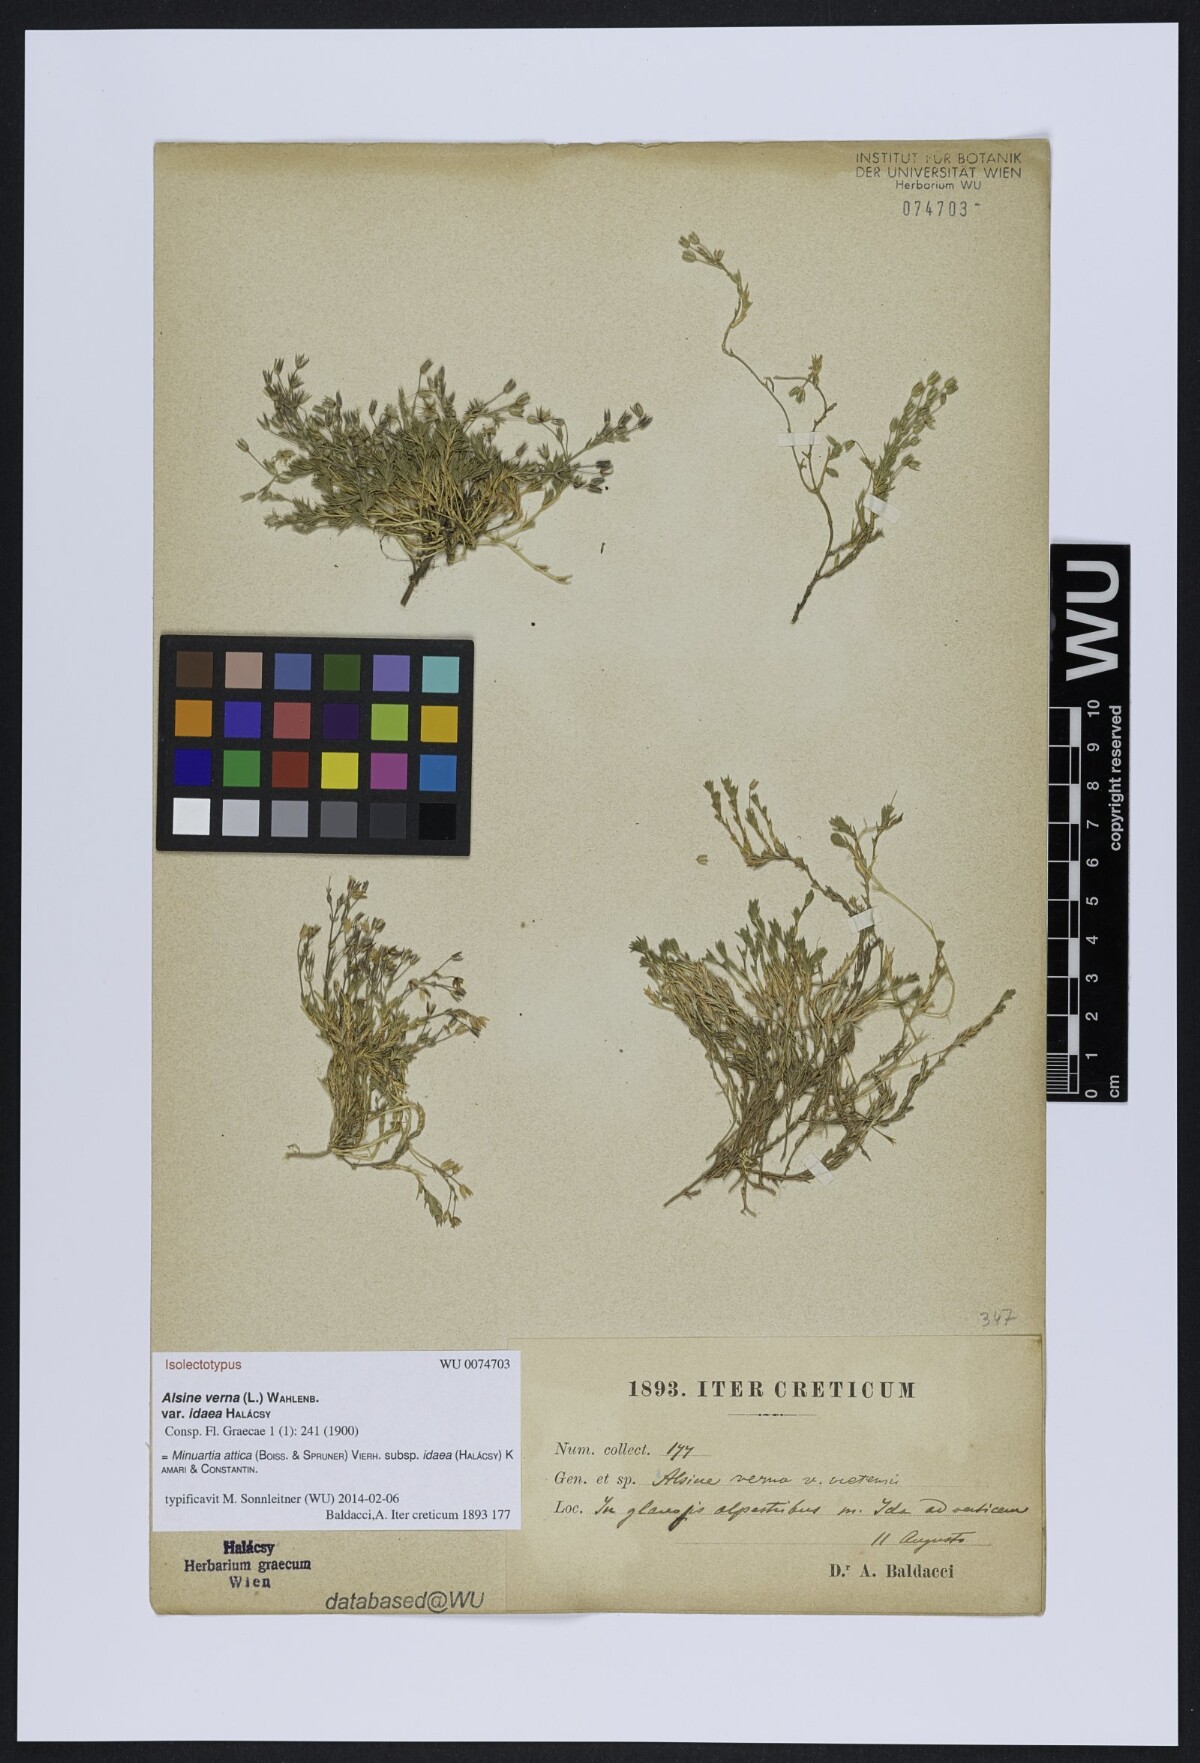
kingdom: Plantae
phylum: Tracheophyta
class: Magnoliopsida
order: Caryophyllales
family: Caryophyllaceae
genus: Sabulina
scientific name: Sabulina attica
